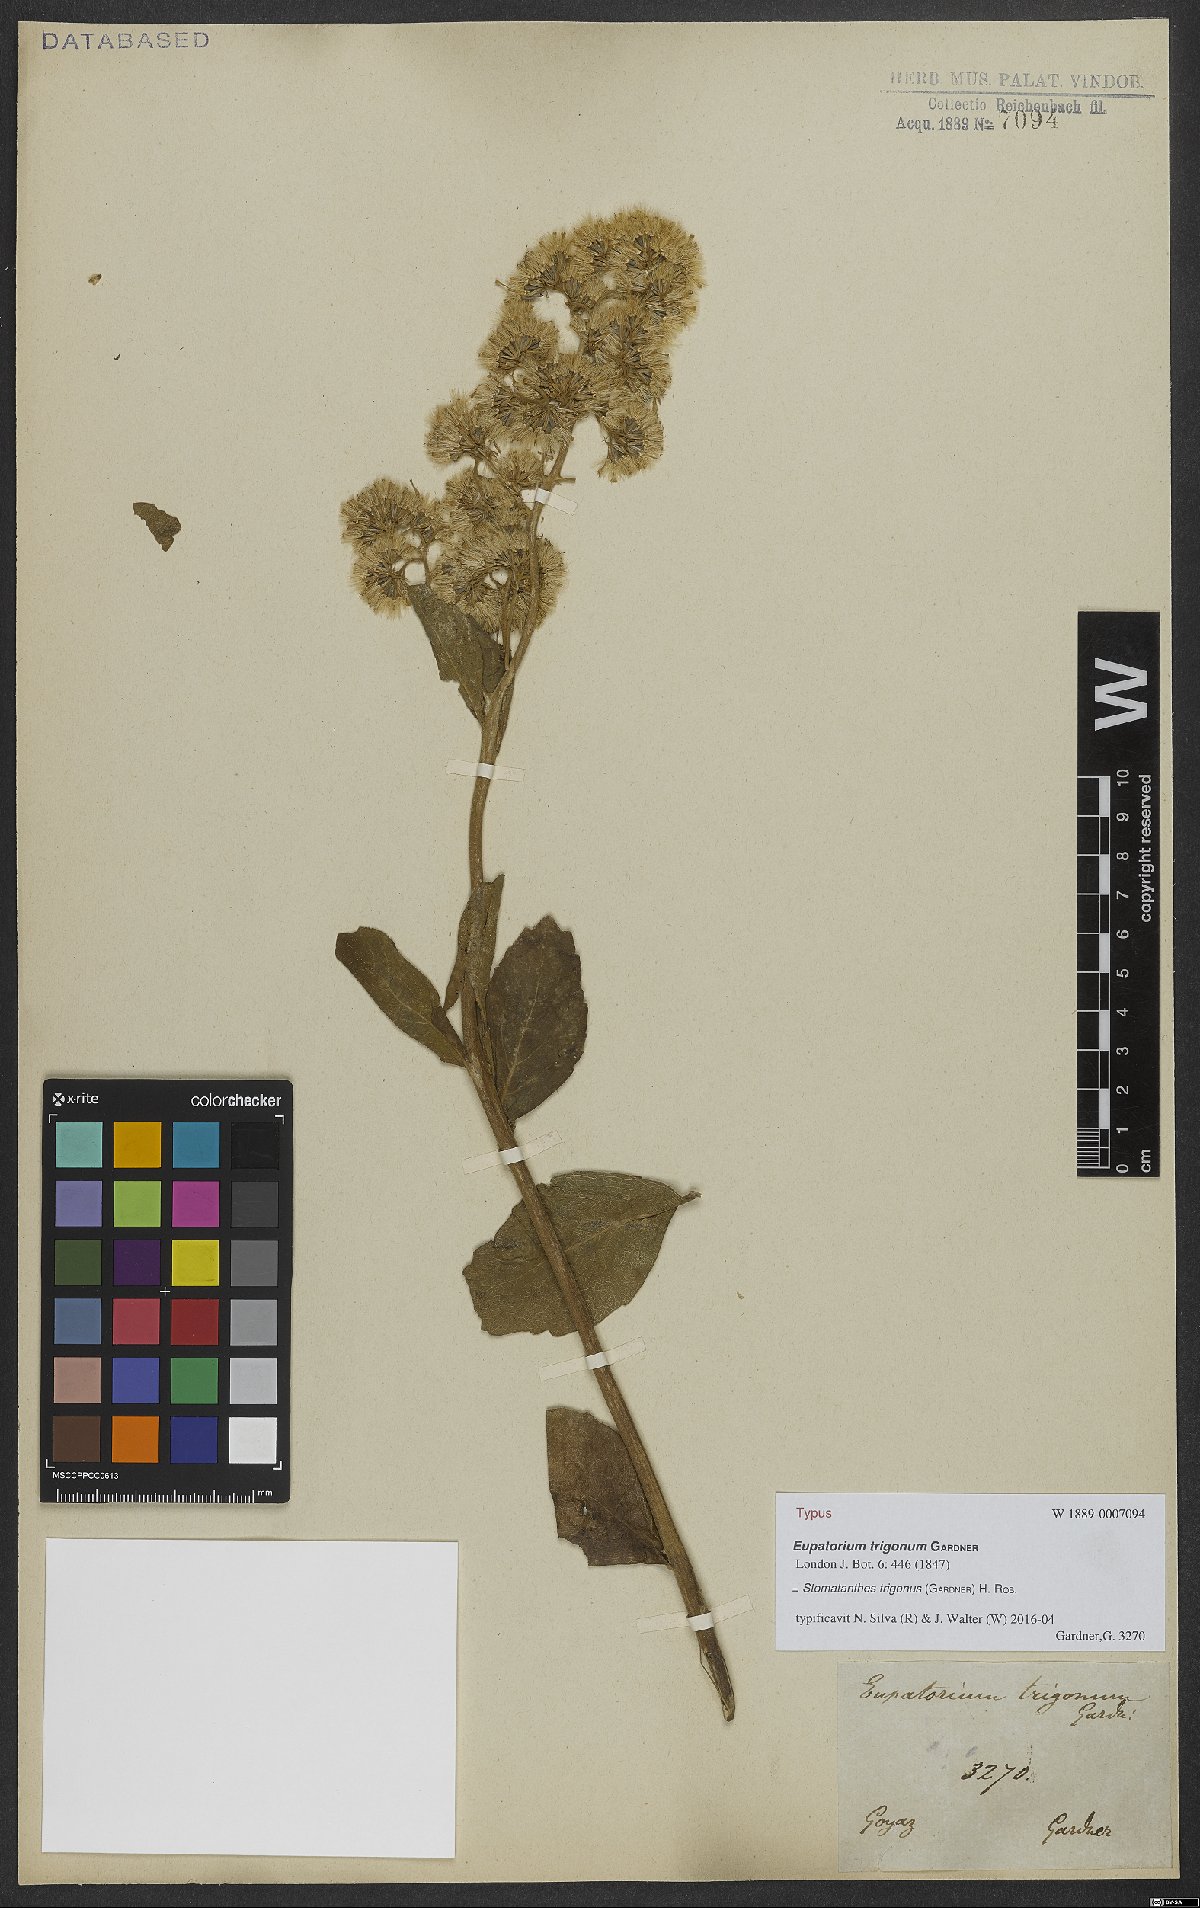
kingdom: Plantae
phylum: Tracheophyta
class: Magnoliopsida
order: Asterales
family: Asteraceae
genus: Stomatanthes
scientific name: Stomatanthes trigonus
